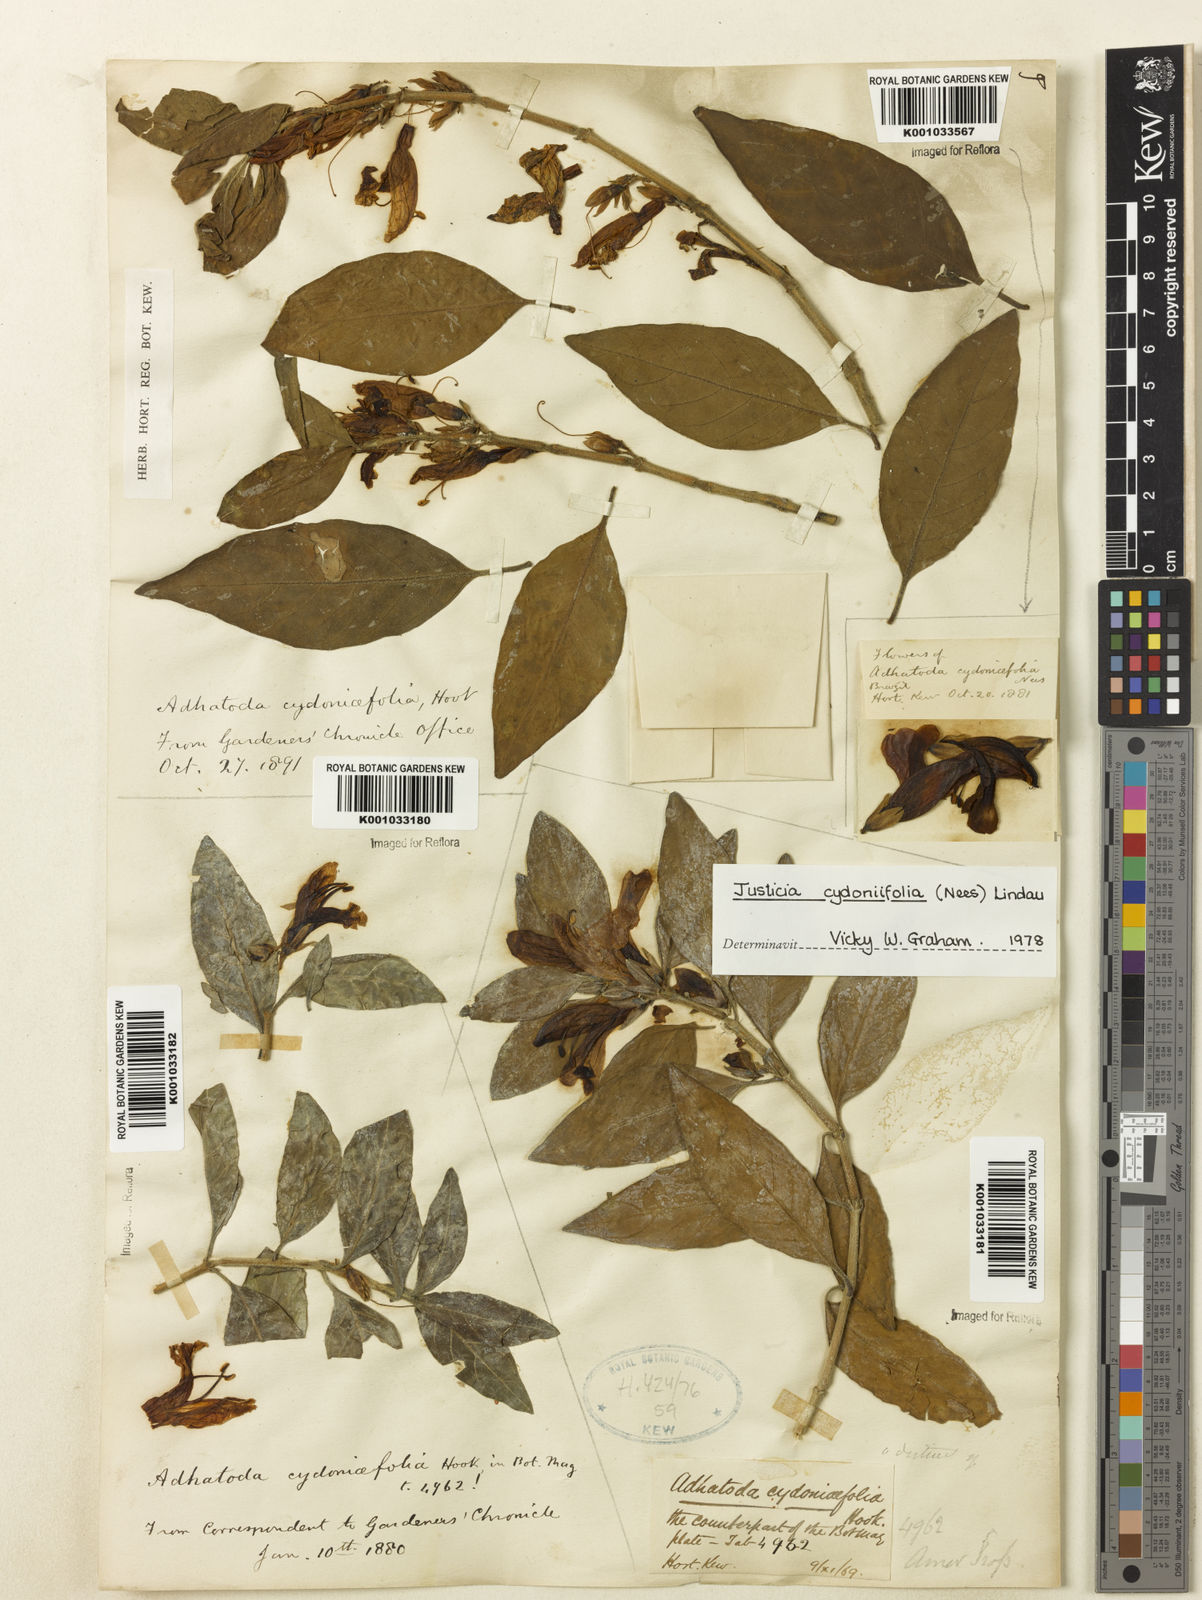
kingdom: Plantae
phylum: Tracheophyta
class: Magnoliopsida
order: Lamiales
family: Acanthaceae
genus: Justicia
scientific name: Justicia
